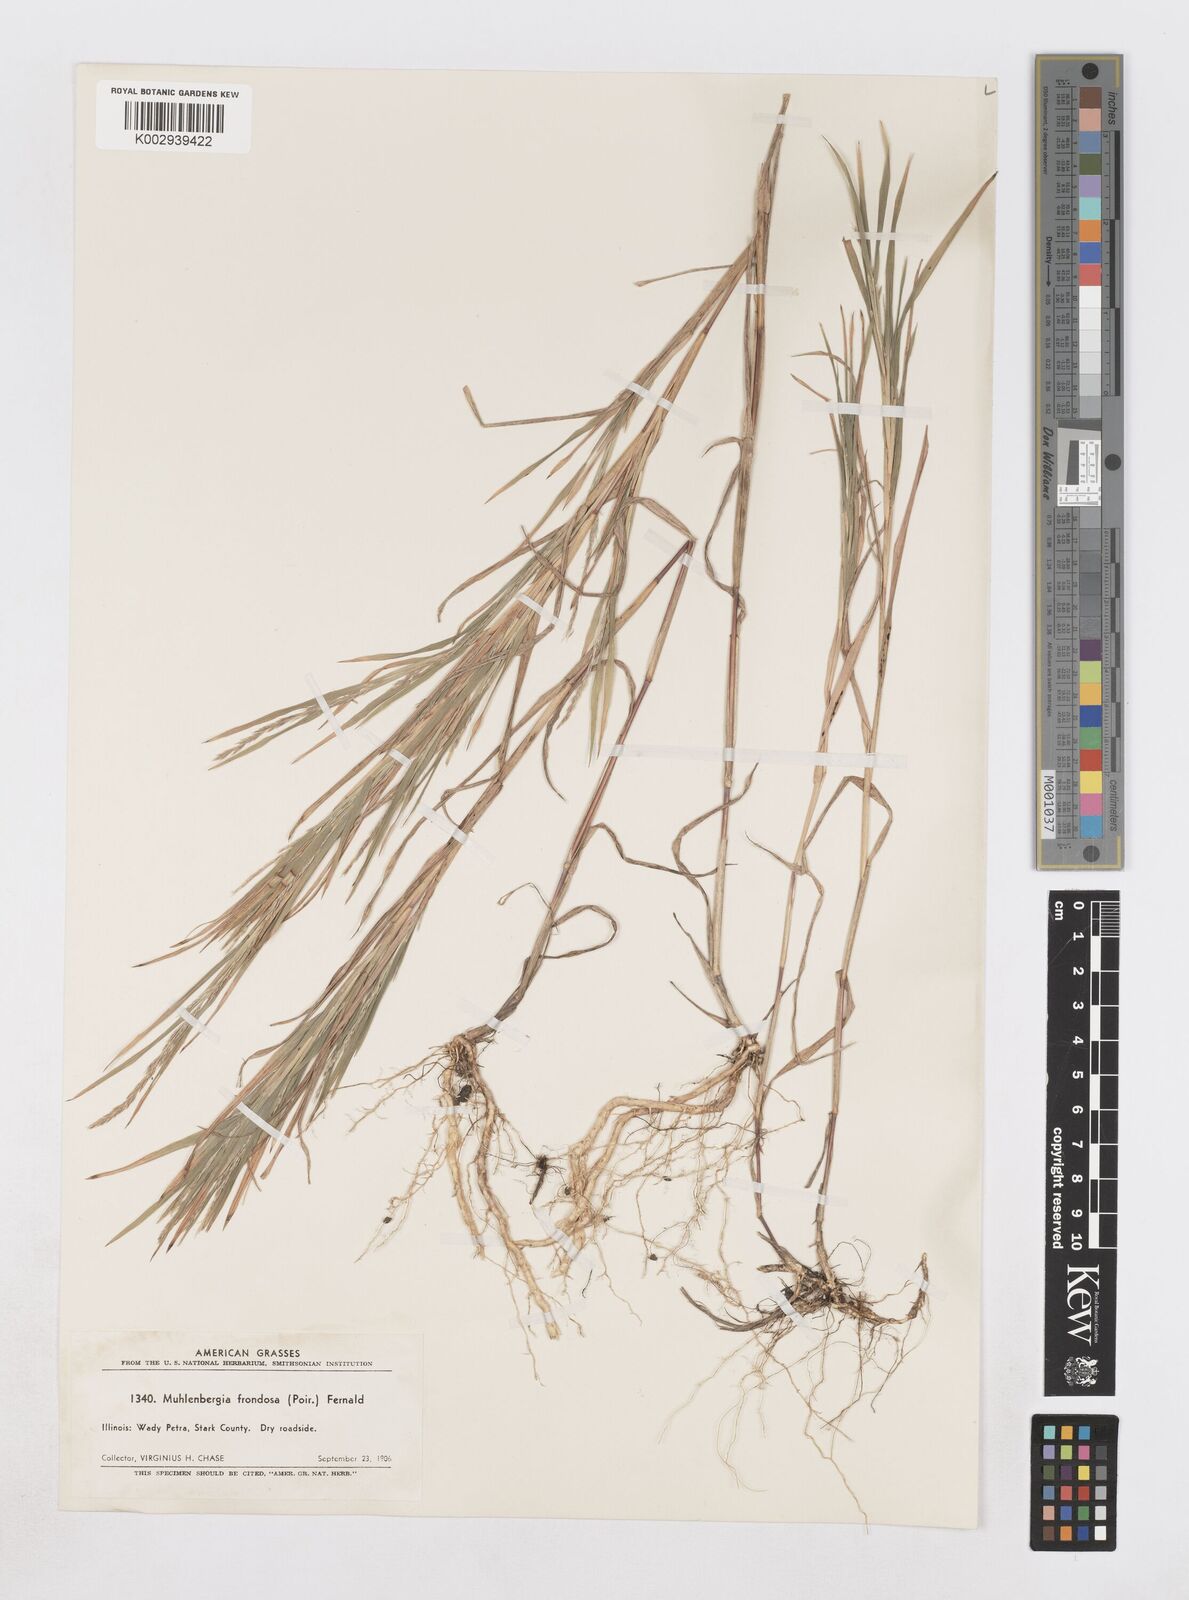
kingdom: Plantae
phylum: Tracheophyta
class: Liliopsida
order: Poales
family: Poaceae
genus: Muhlenbergia
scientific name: Muhlenbergia frondosa
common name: Common satingrass
